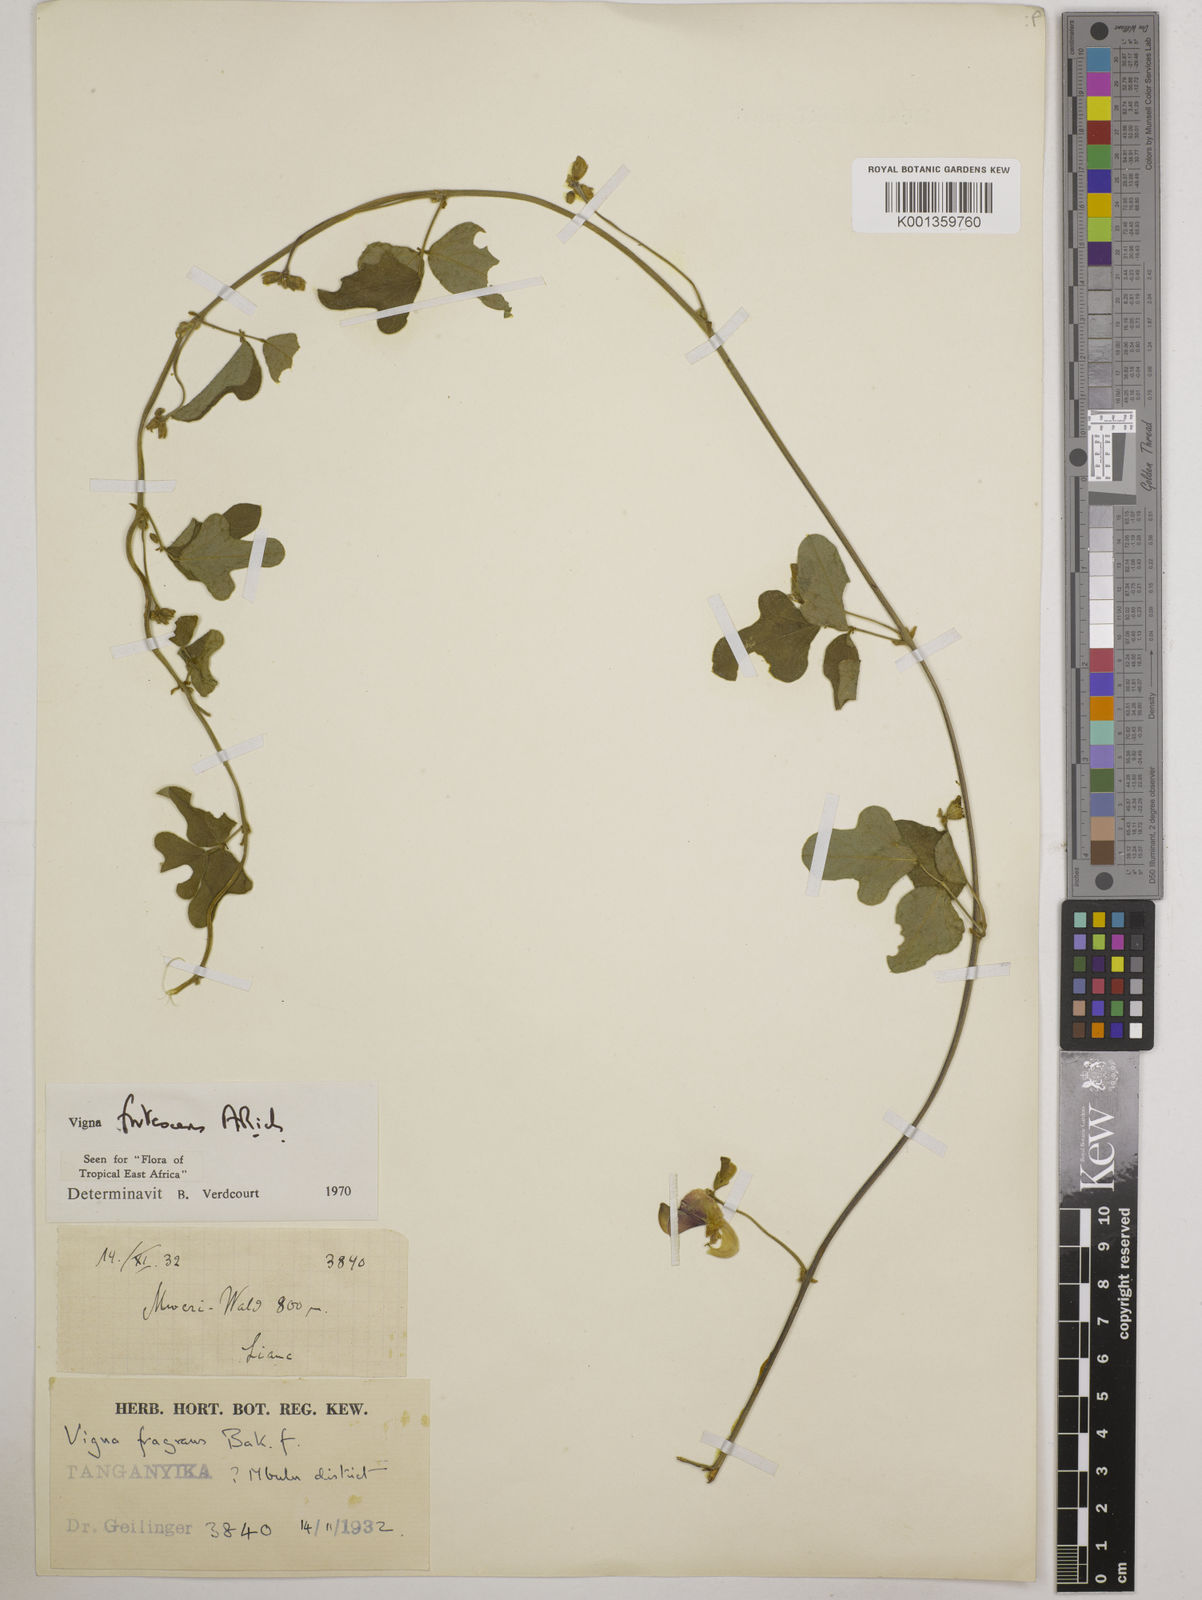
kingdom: Plantae
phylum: Tracheophyta
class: Magnoliopsida
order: Fabales
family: Fabaceae
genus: Vigna
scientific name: Vigna frutescens
